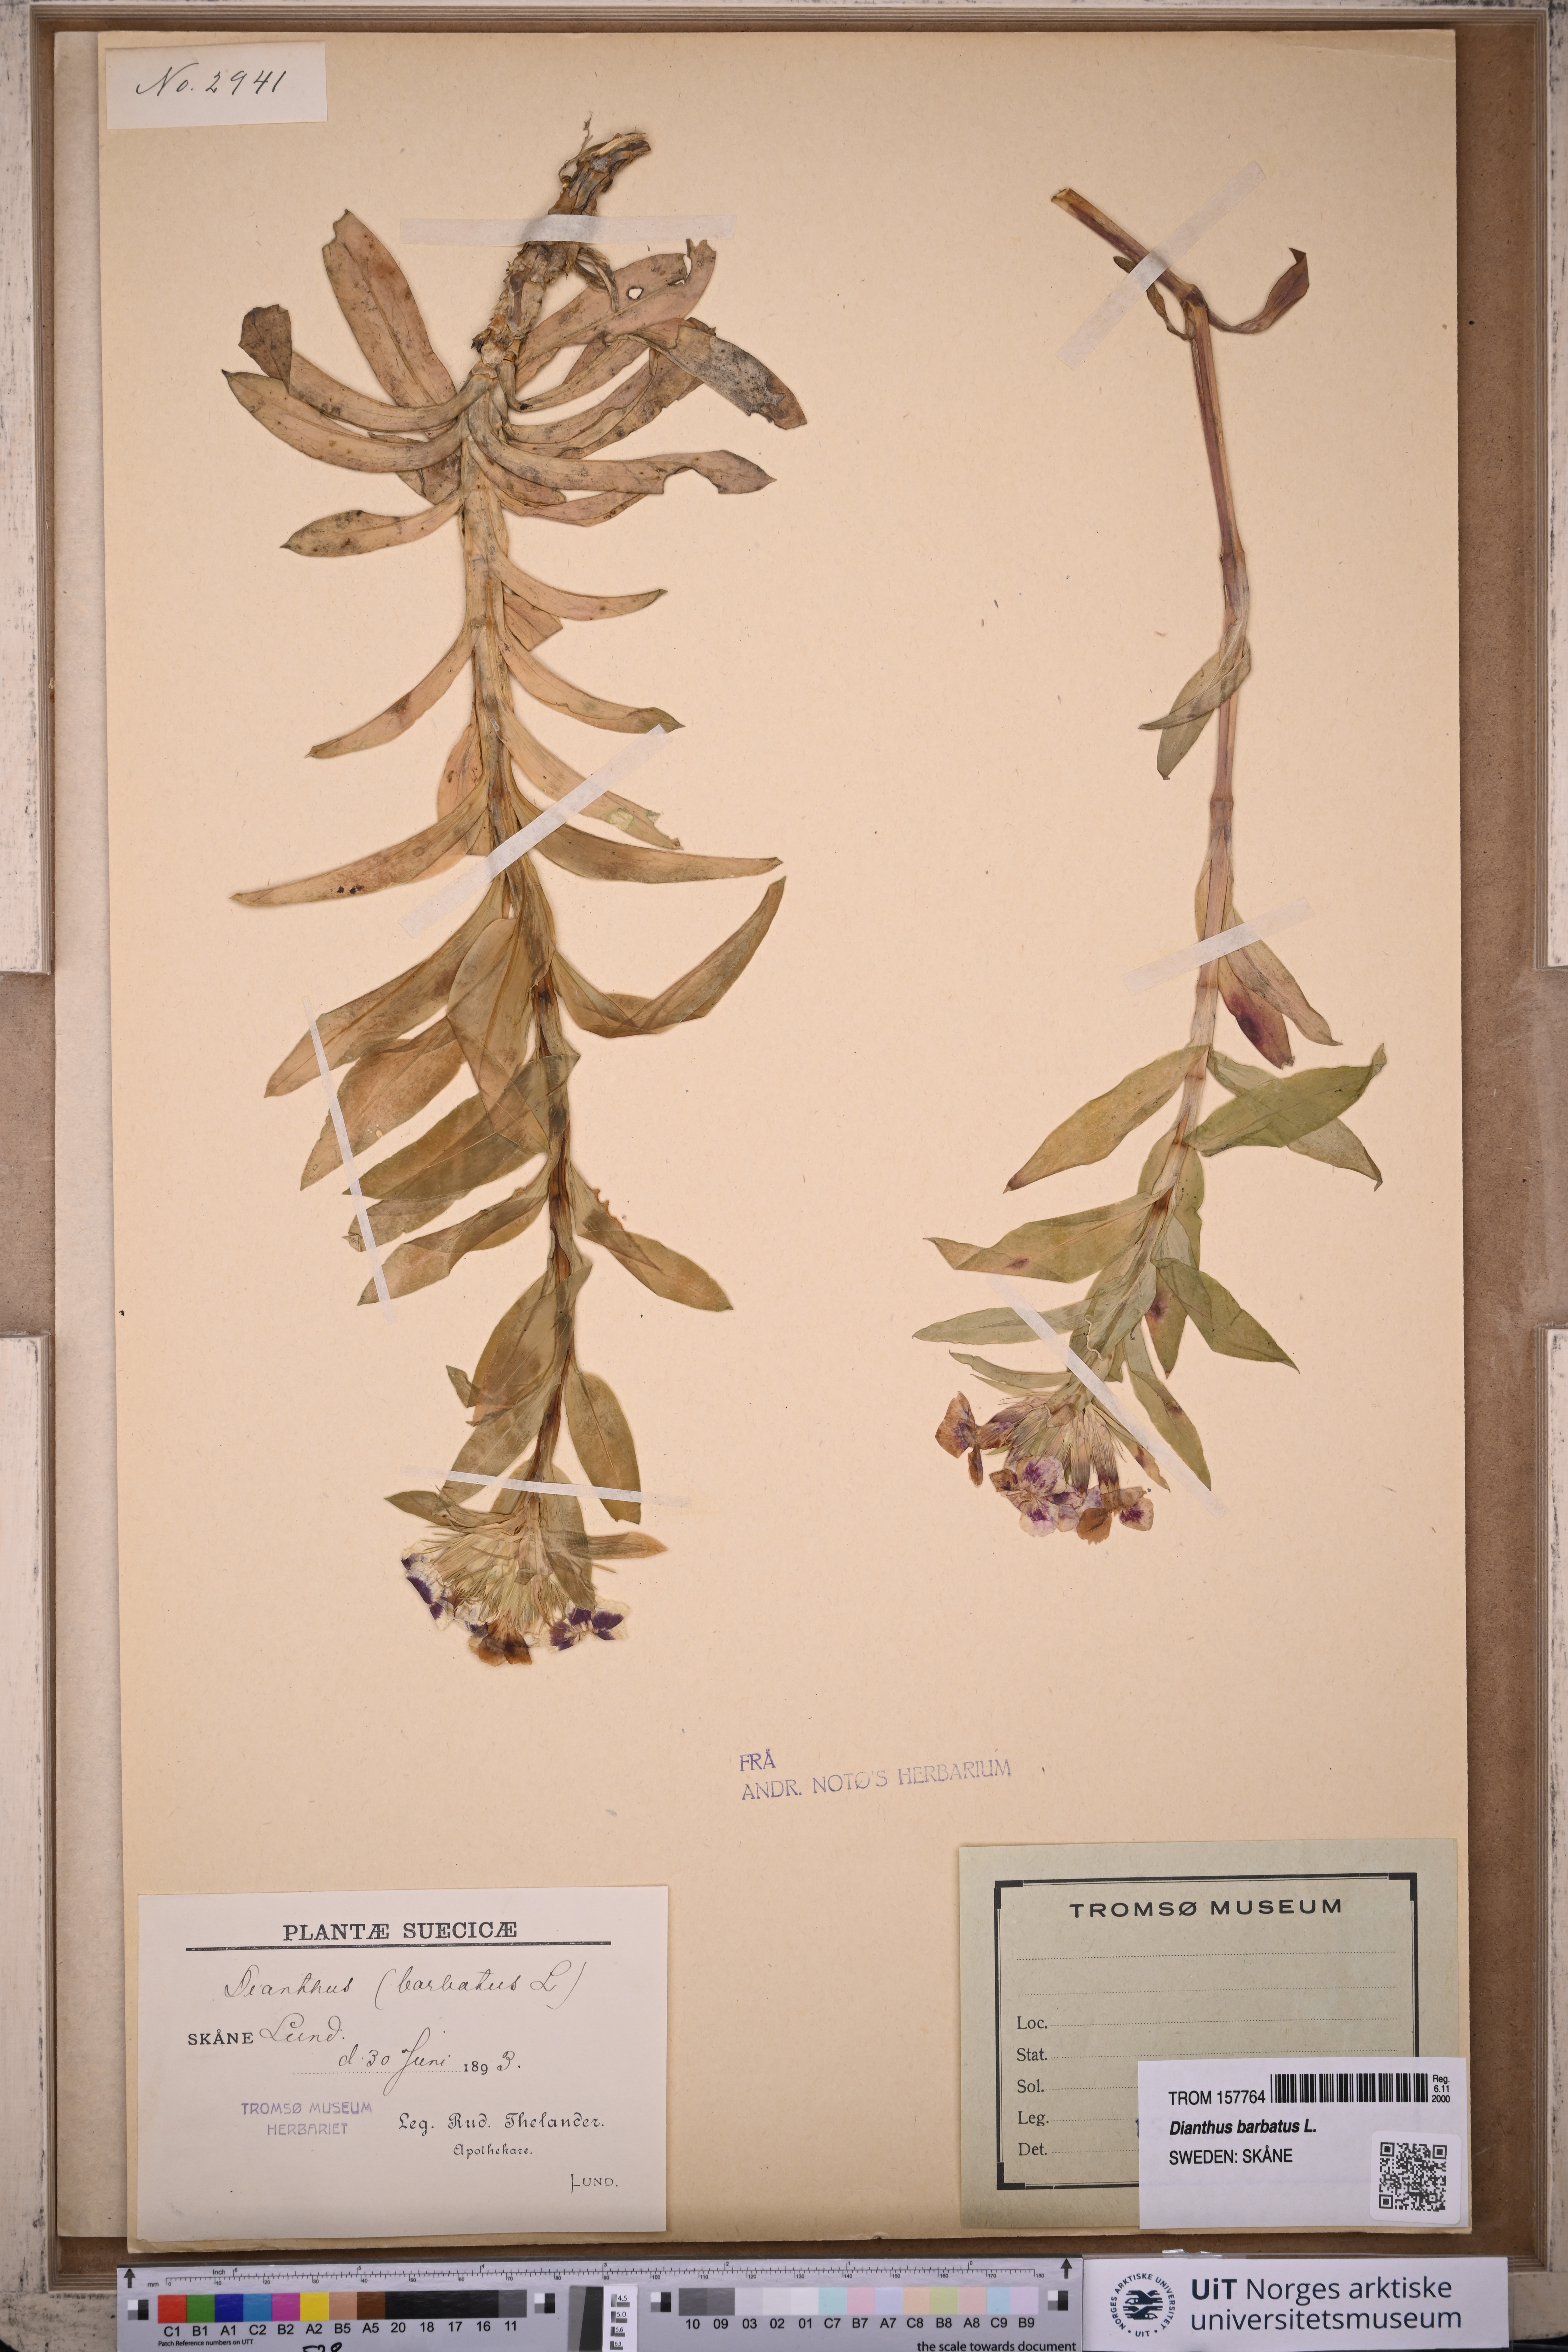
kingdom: Plantae
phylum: Tracheophyta
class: Magnoliopsida
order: Caryophyllales
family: Caryophyllaceae
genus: Dianthus
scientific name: Dianthus barbatus
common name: Sweet-william
